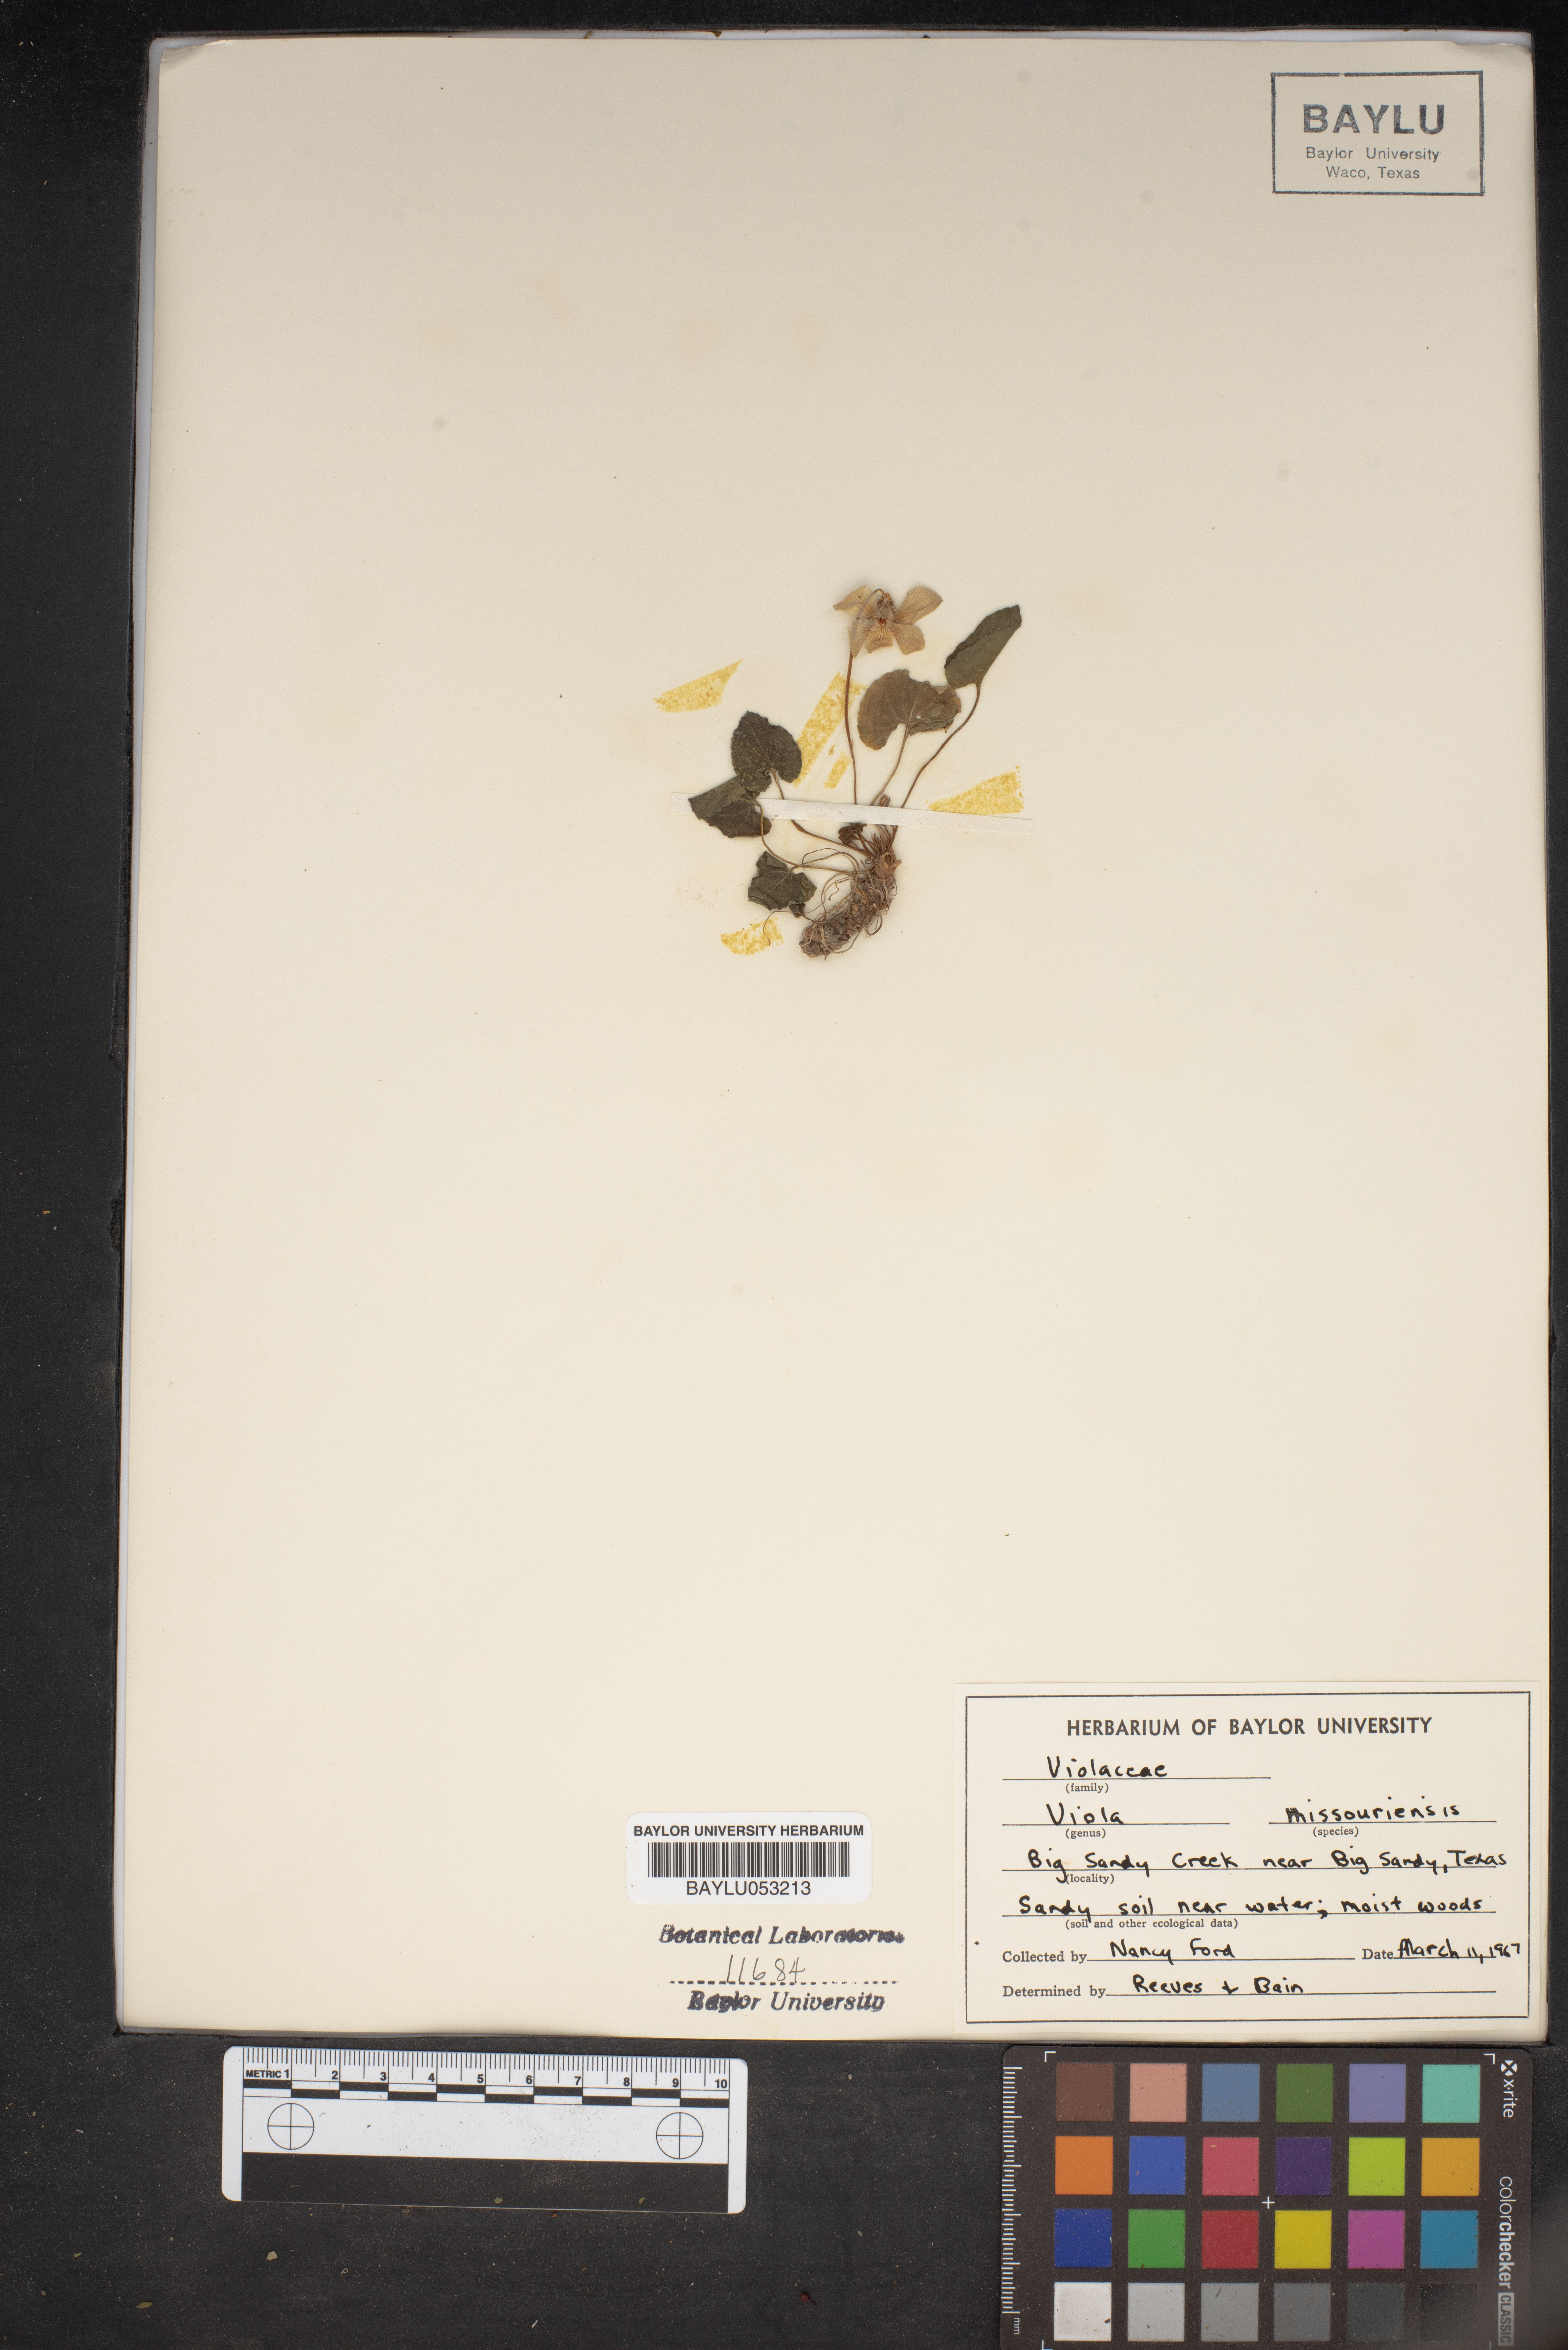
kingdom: Plantae
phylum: Tracheophyta
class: Magnoliopsida
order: Malpighiales
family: Violaceae
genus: Viola
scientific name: Viola missouriensis
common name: Missouri violet
